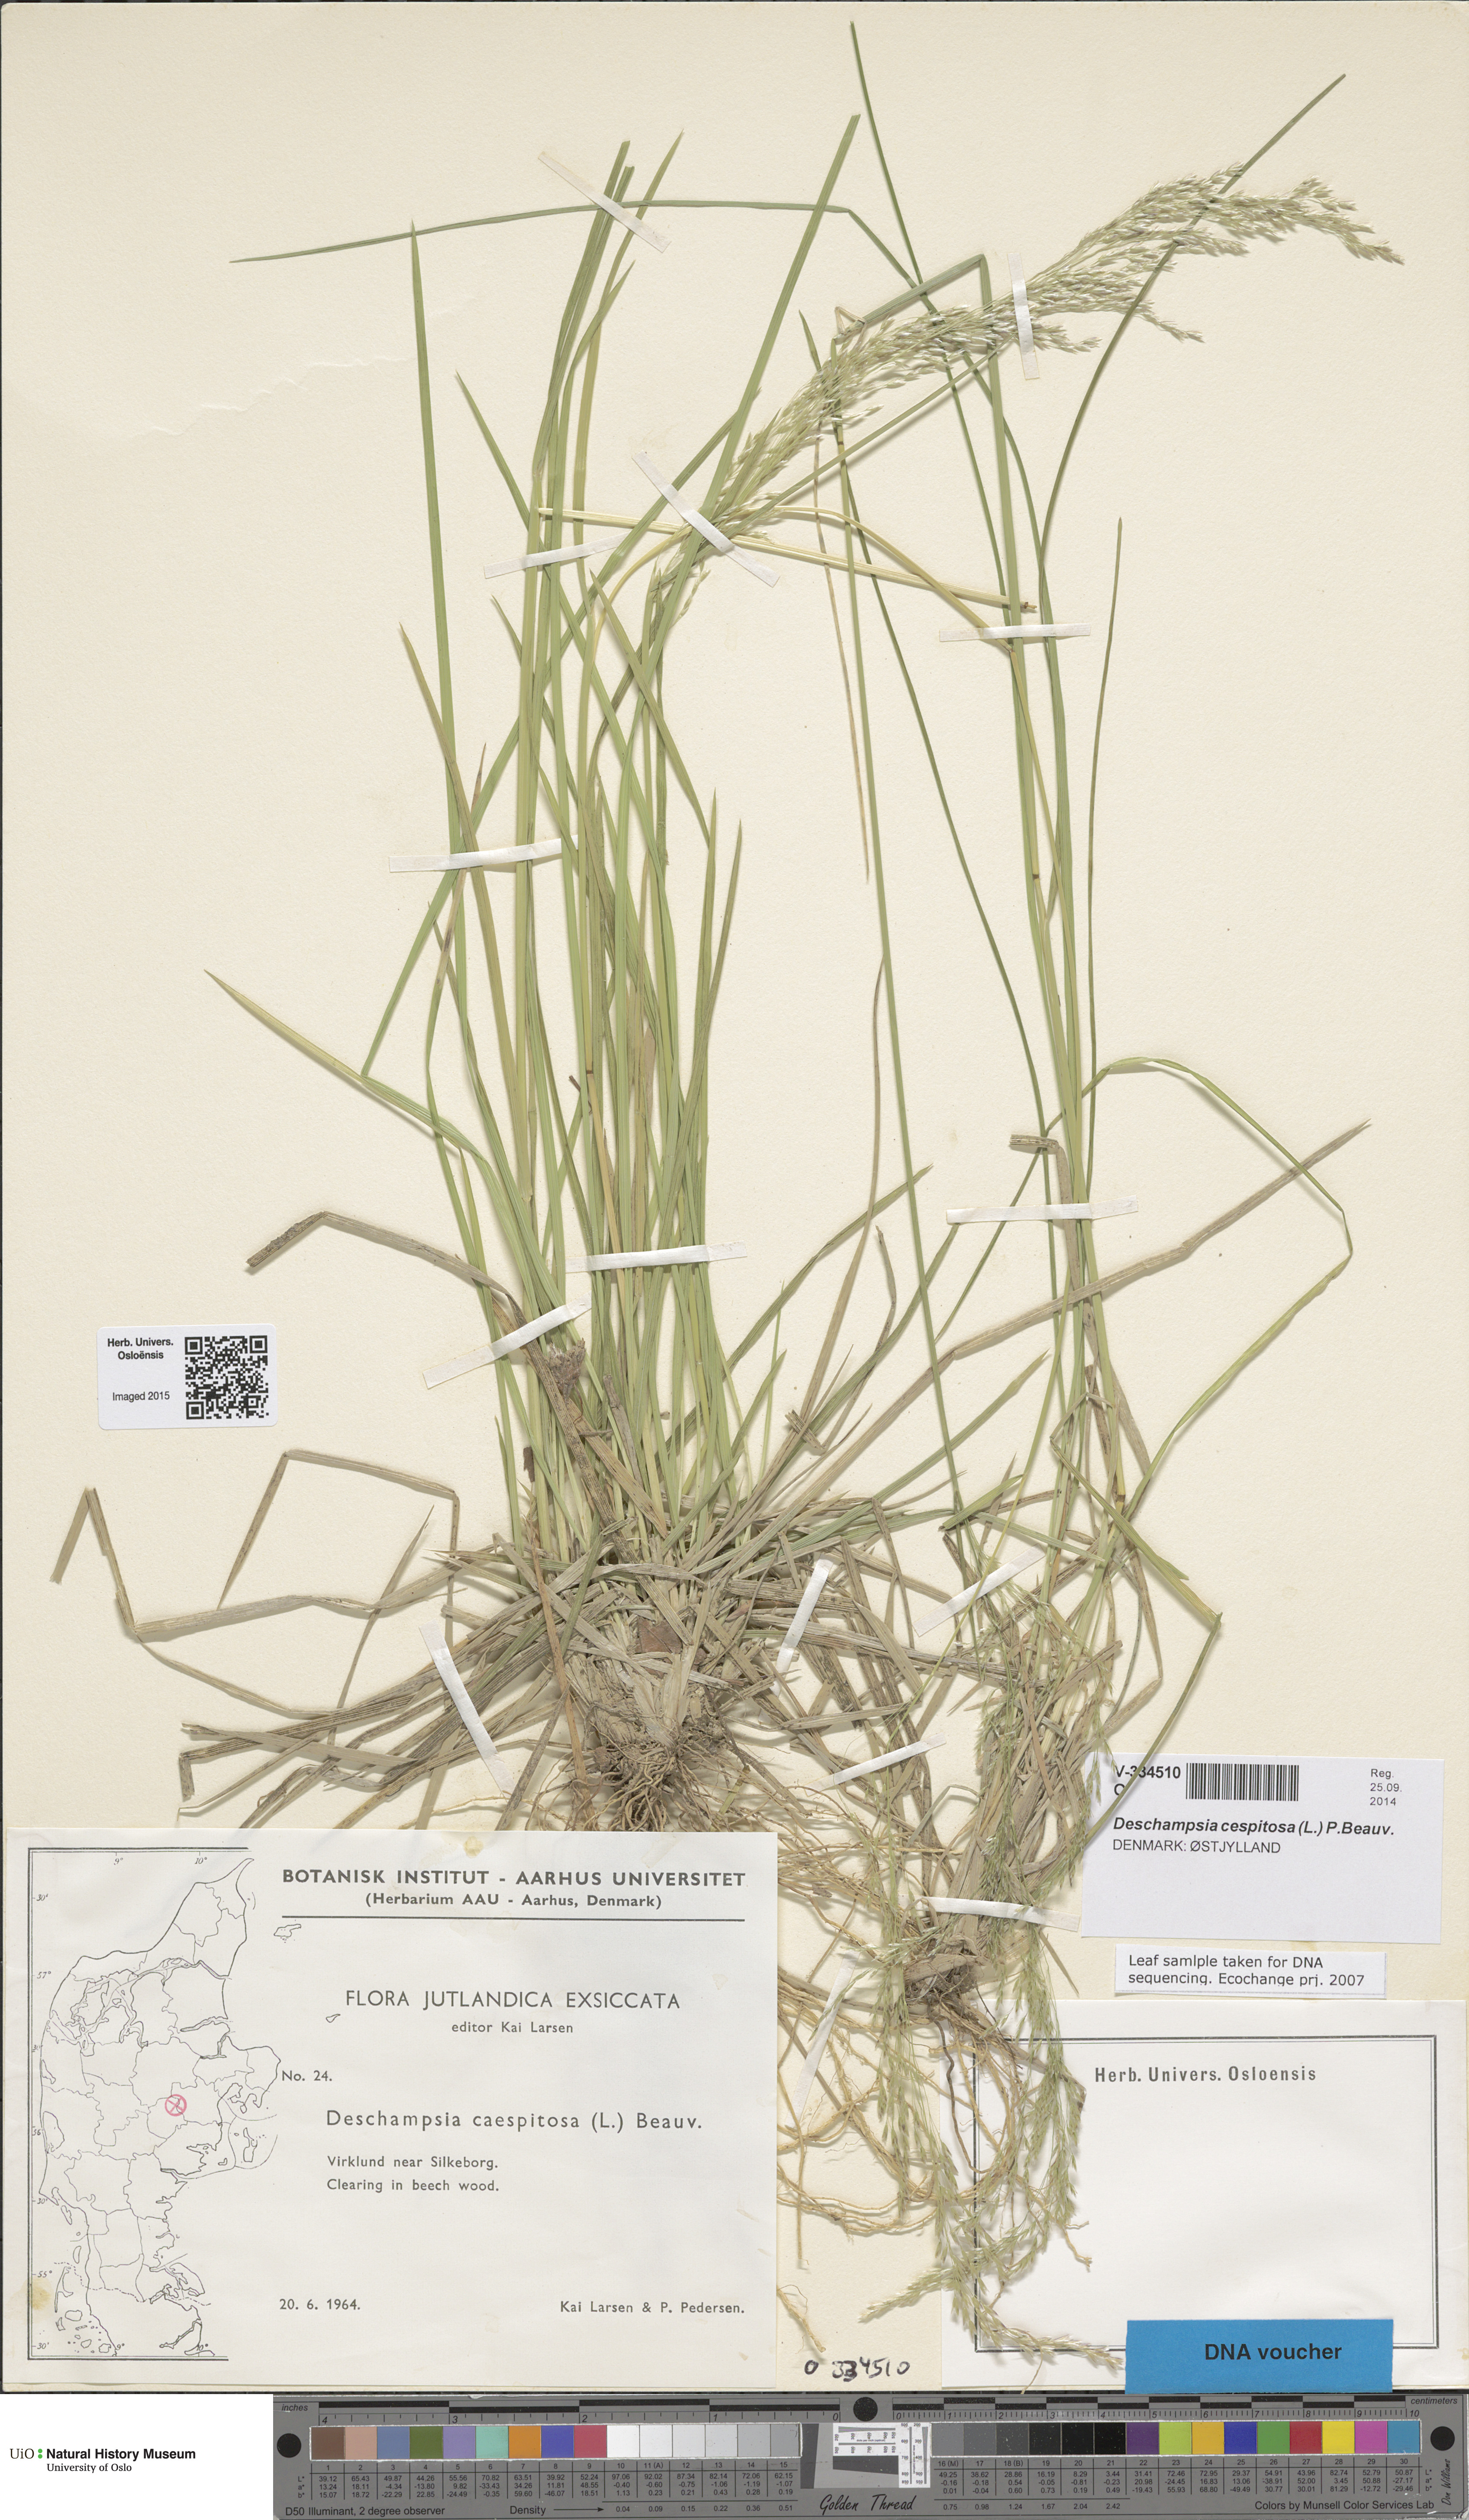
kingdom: Plantae
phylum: Tracheophyta
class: Liliopsida
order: Poales
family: Poaceae
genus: Deschampsia
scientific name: Deschampsia cespitosa
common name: Tufted hair-grass
